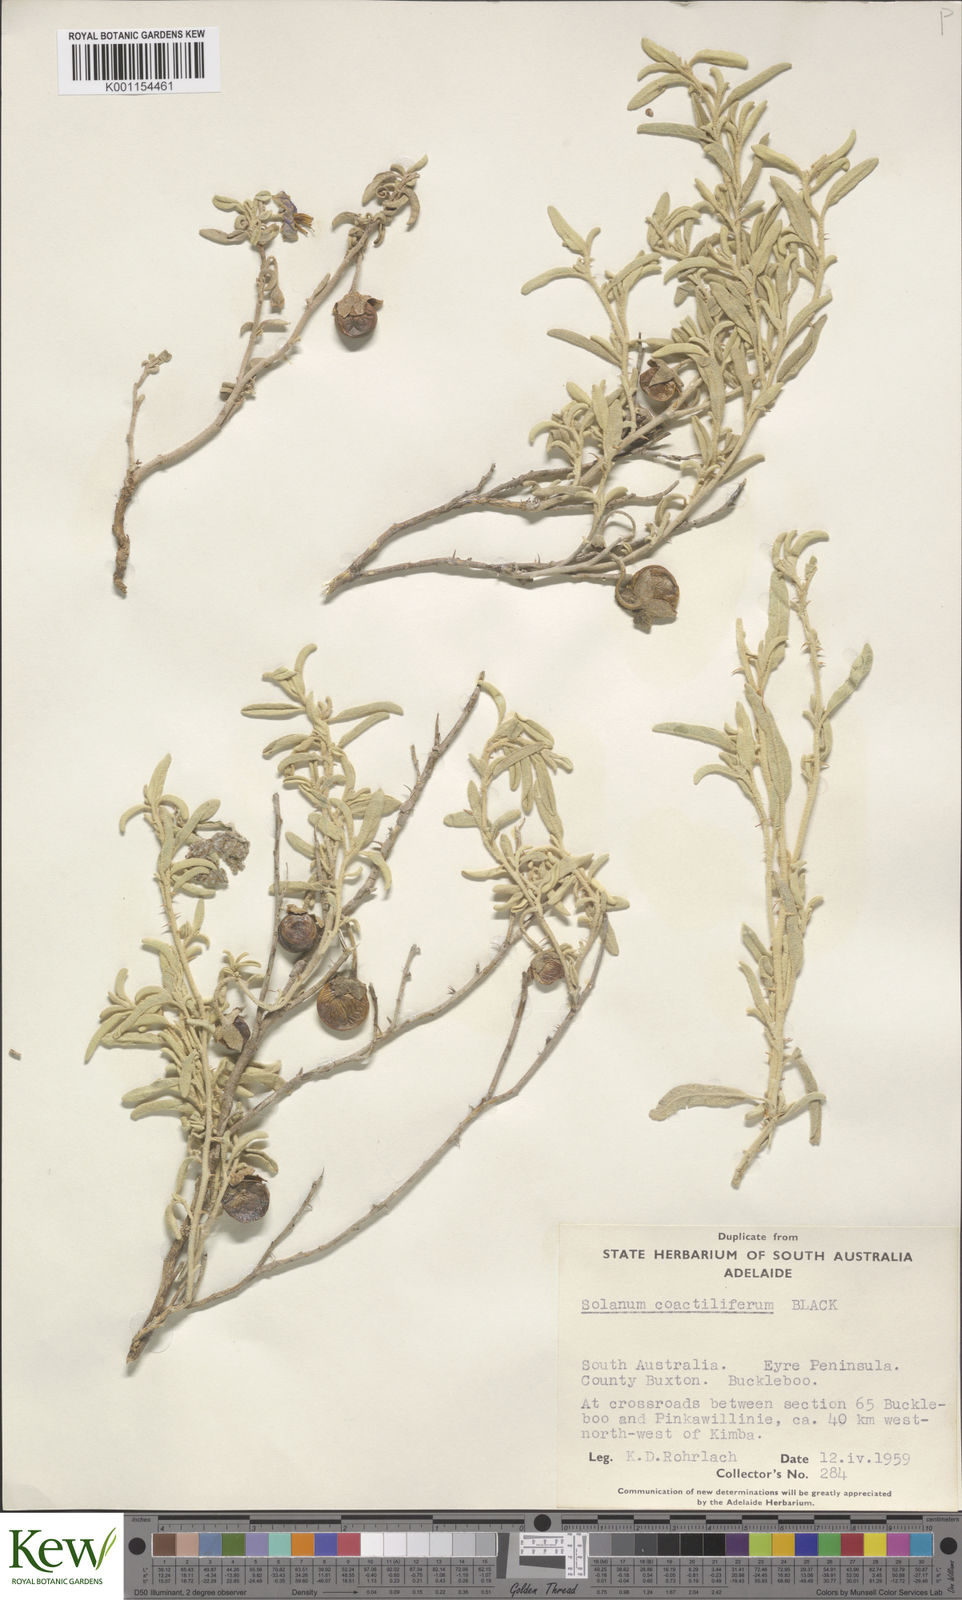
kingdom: Plantae
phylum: Tracheophyta
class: Magnoliopsida
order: Solanales
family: Solanaceae
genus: Solanum
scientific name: Solanum coactiliferum
